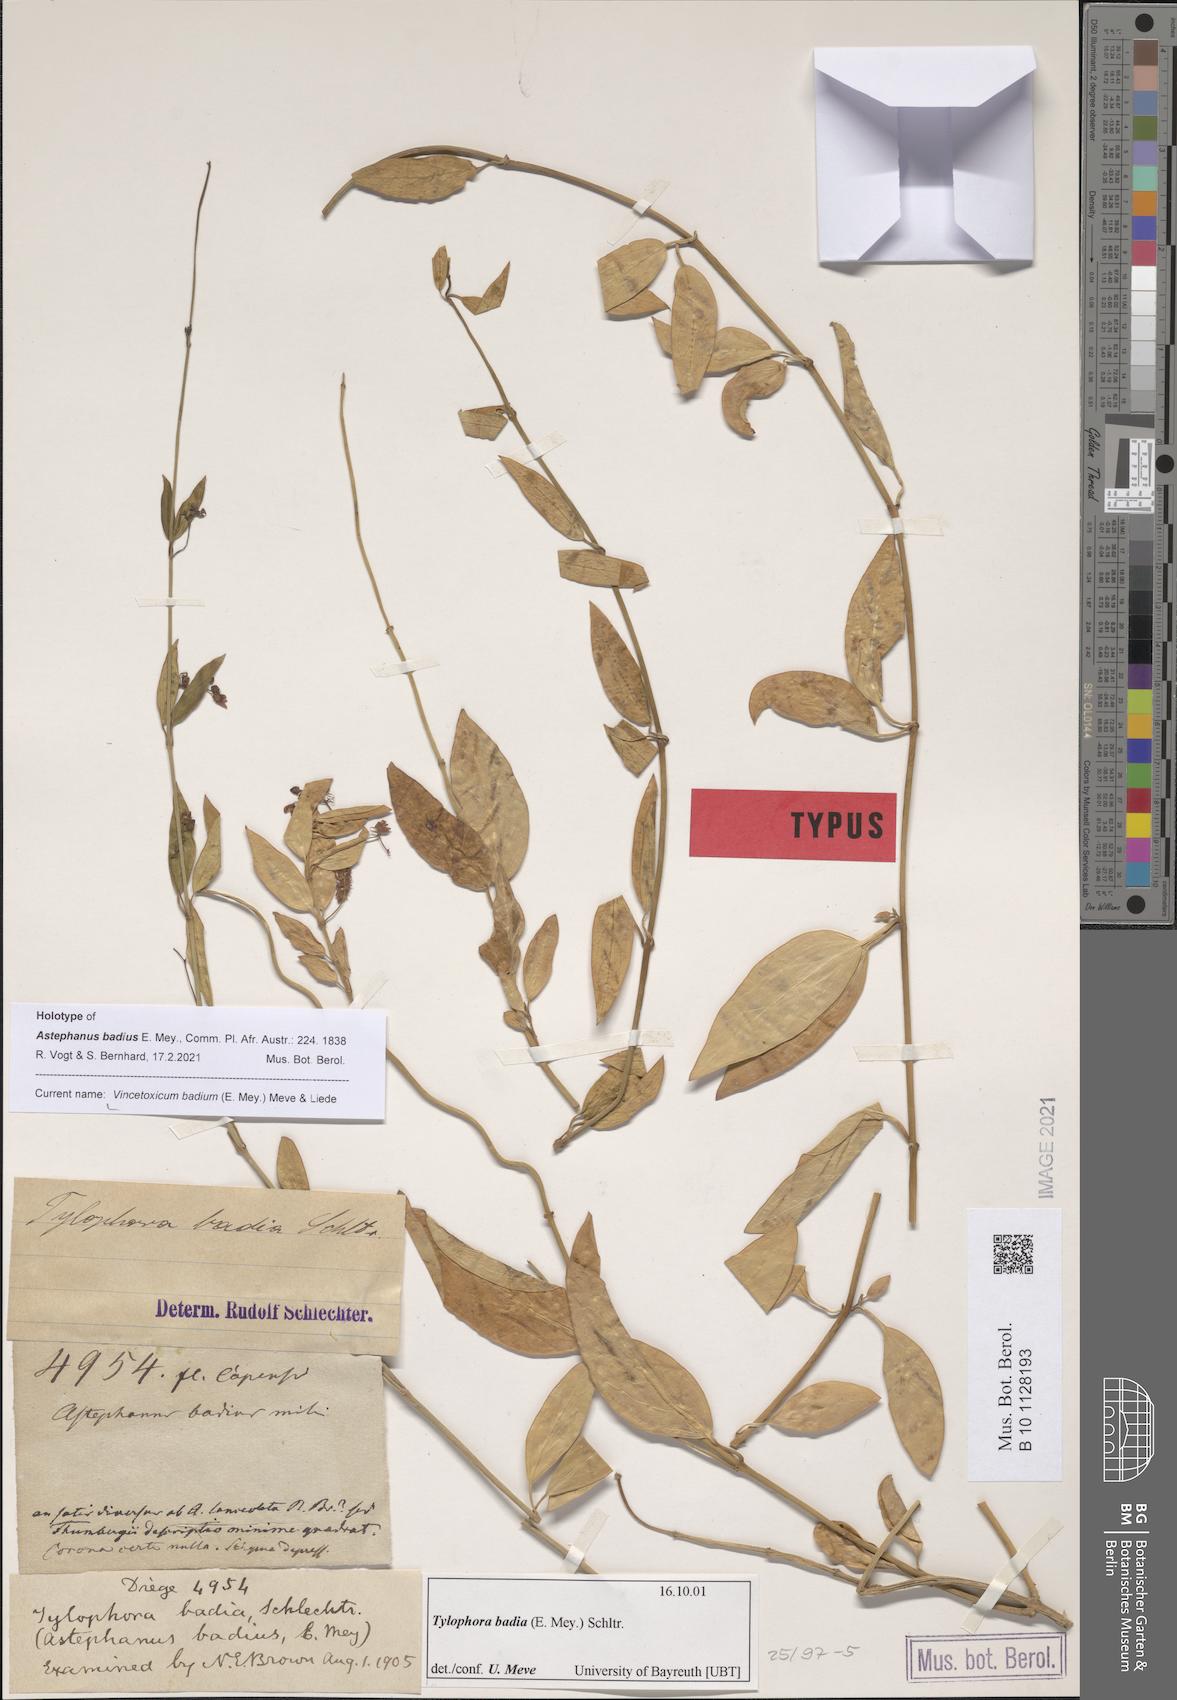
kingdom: Plantae
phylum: Tracheophyta
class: Magnoliopsida
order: Gentianales
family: Apocynaceae
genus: Vincetoxicum
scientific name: Vincetoxicum badium
